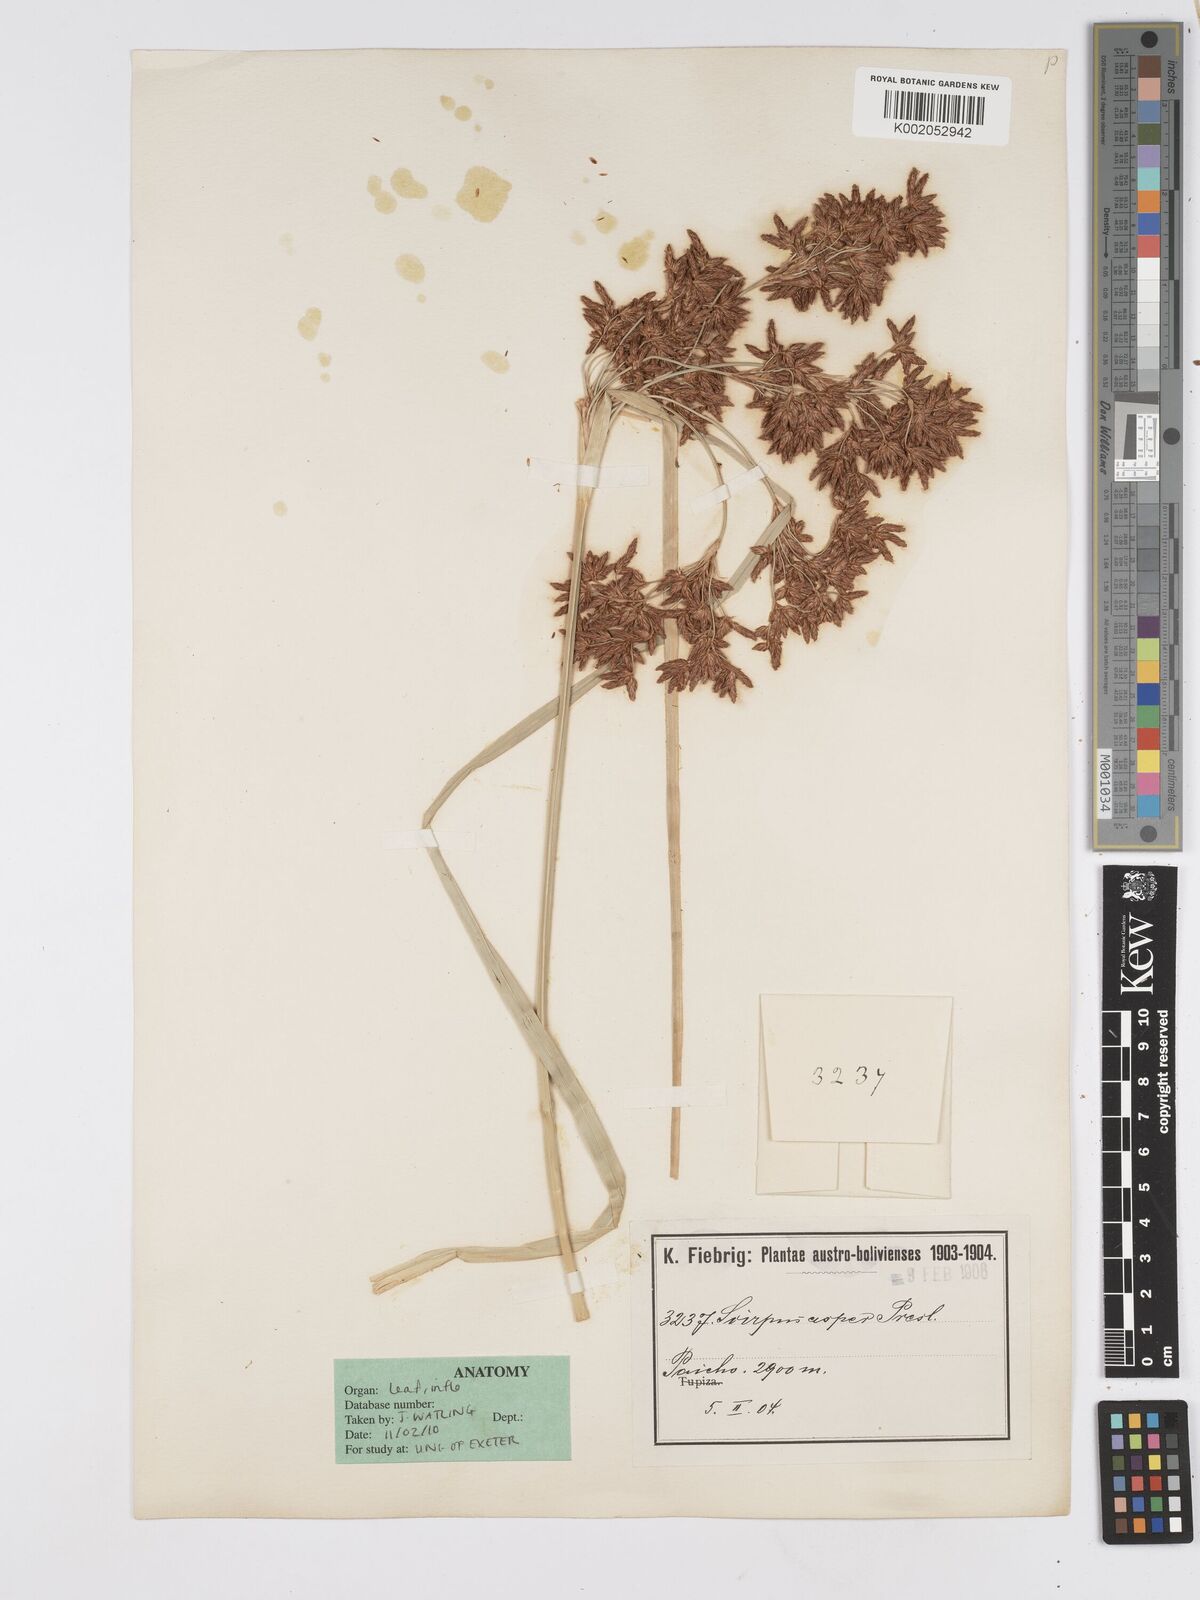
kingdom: Plantae
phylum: Tracheophyta
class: Liliopsida
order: Poales
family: Cyperaceae
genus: Rhodoscirpus
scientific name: Rhodoscirpus asper
